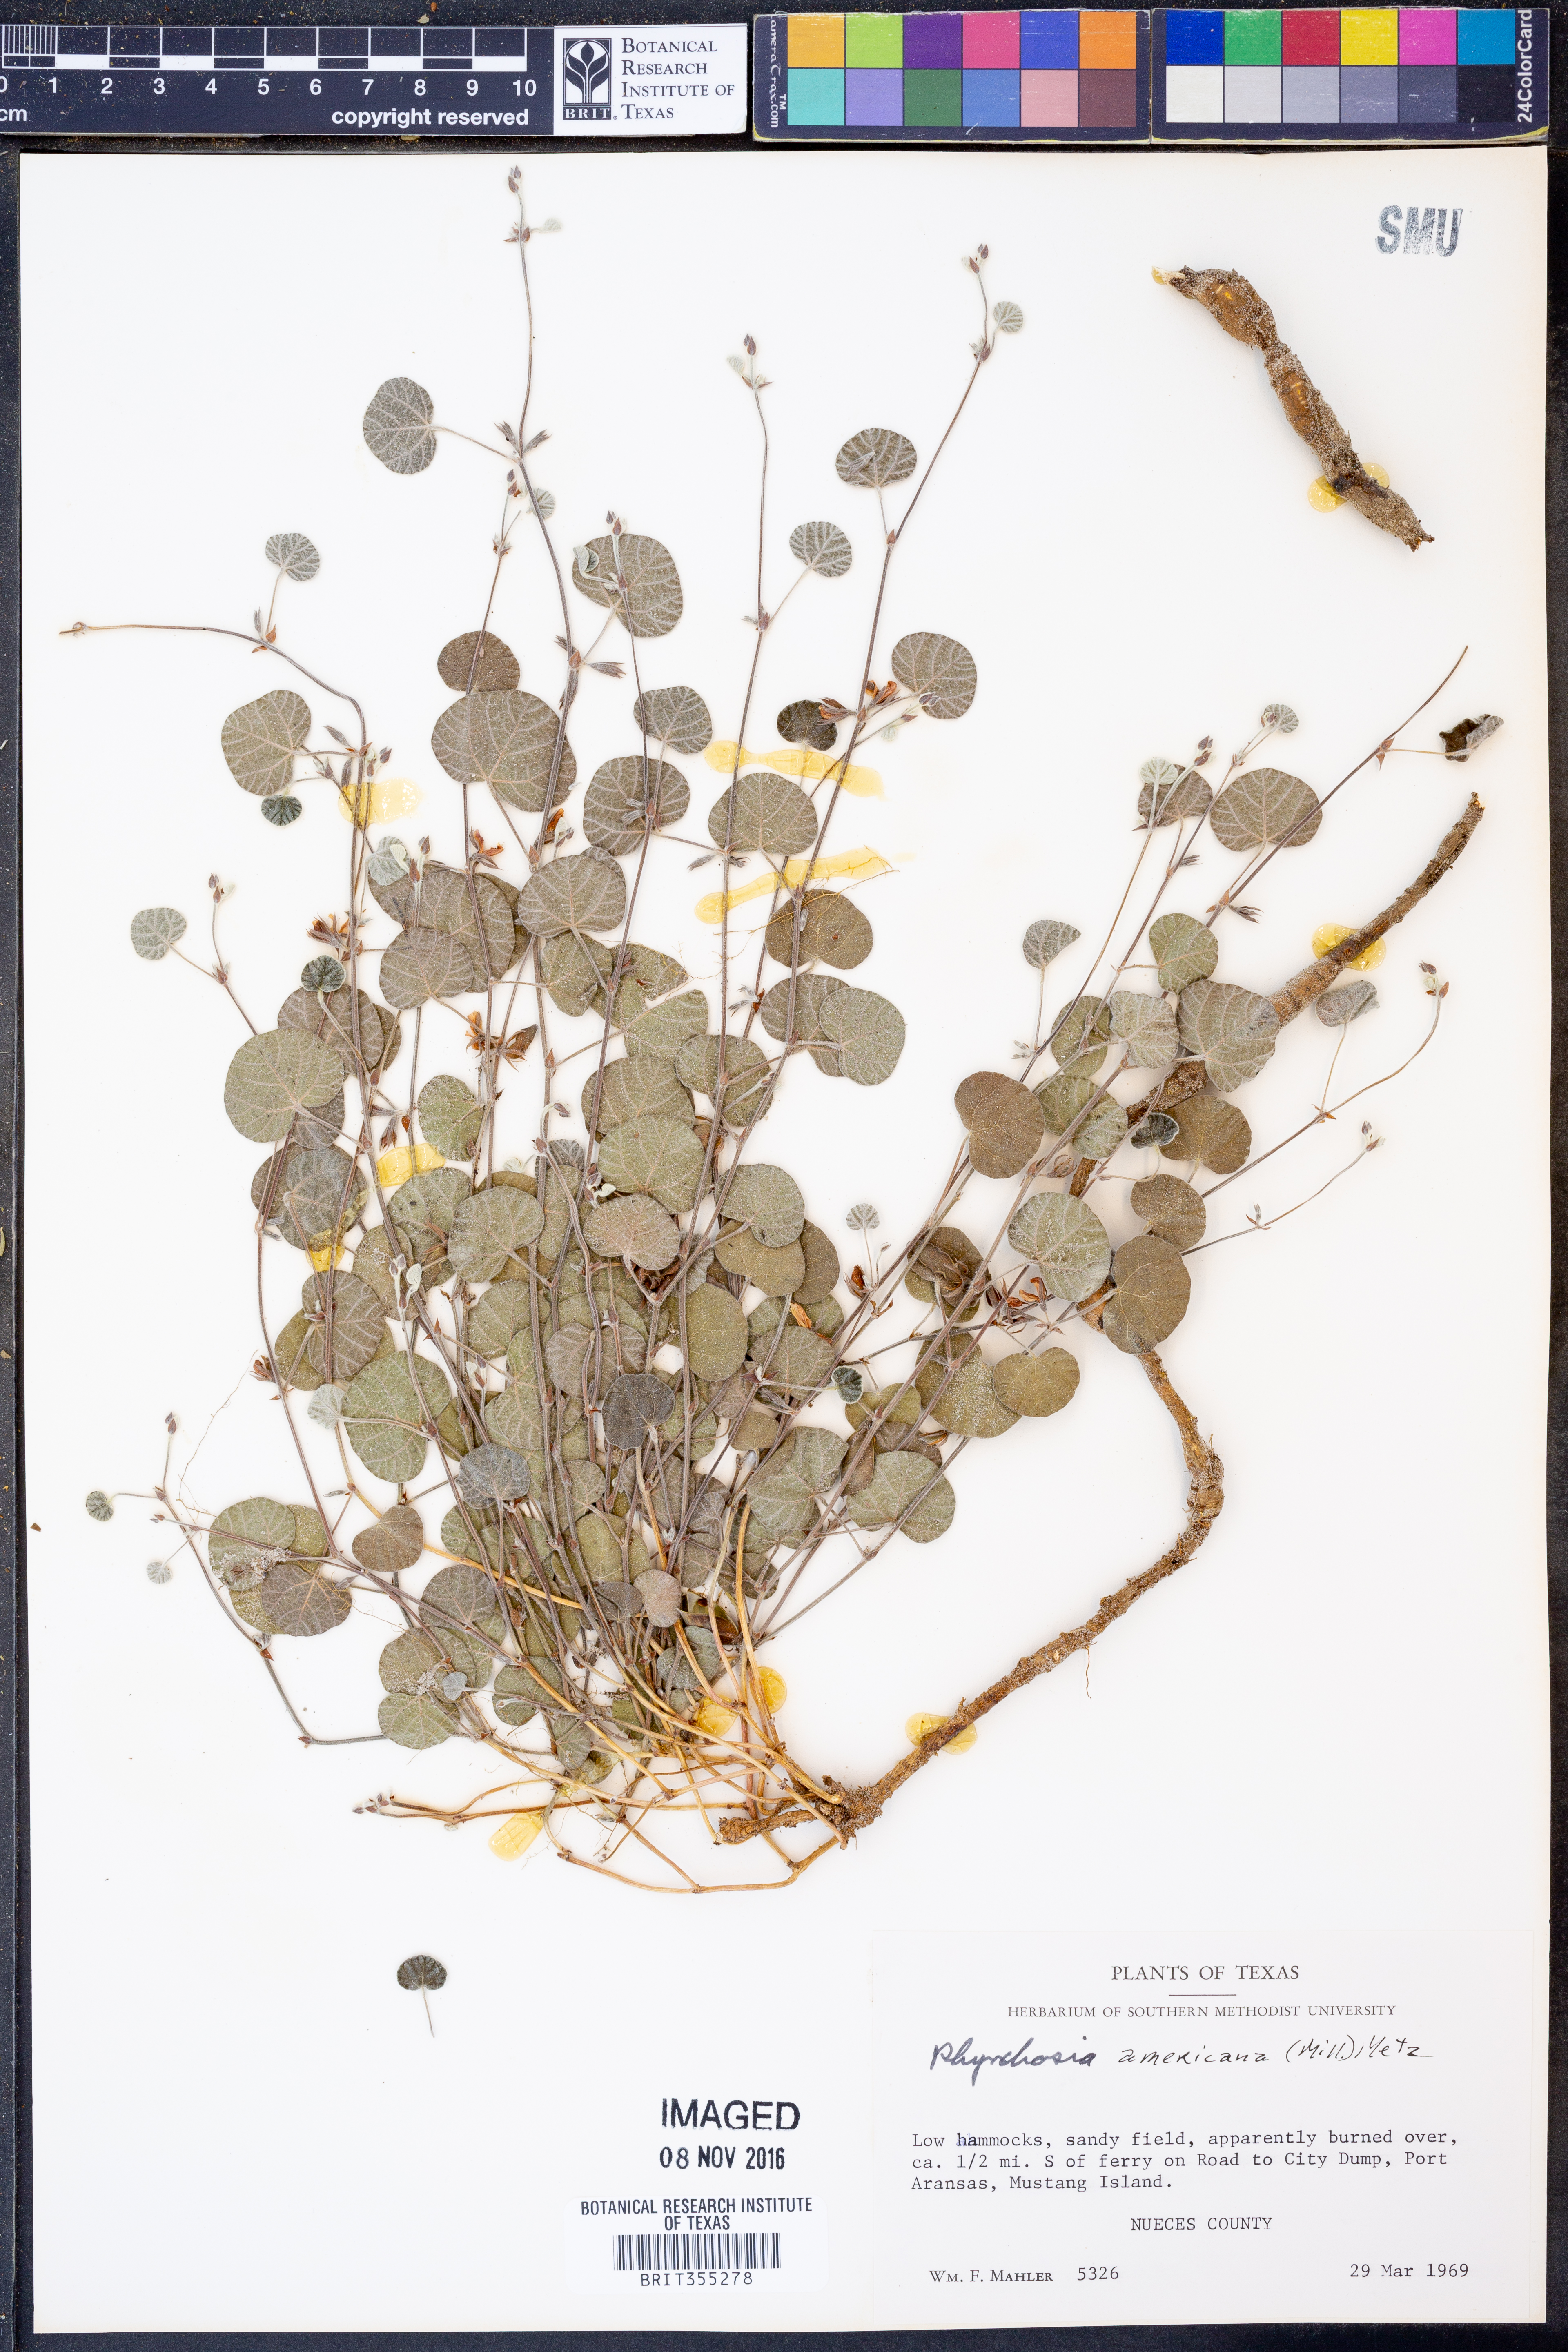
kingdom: Plantae
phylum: Tracheophyta
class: Magnoliopsida
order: Fabales
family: Fabaceae
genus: Rhynchosia
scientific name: Rhynchosia americana
